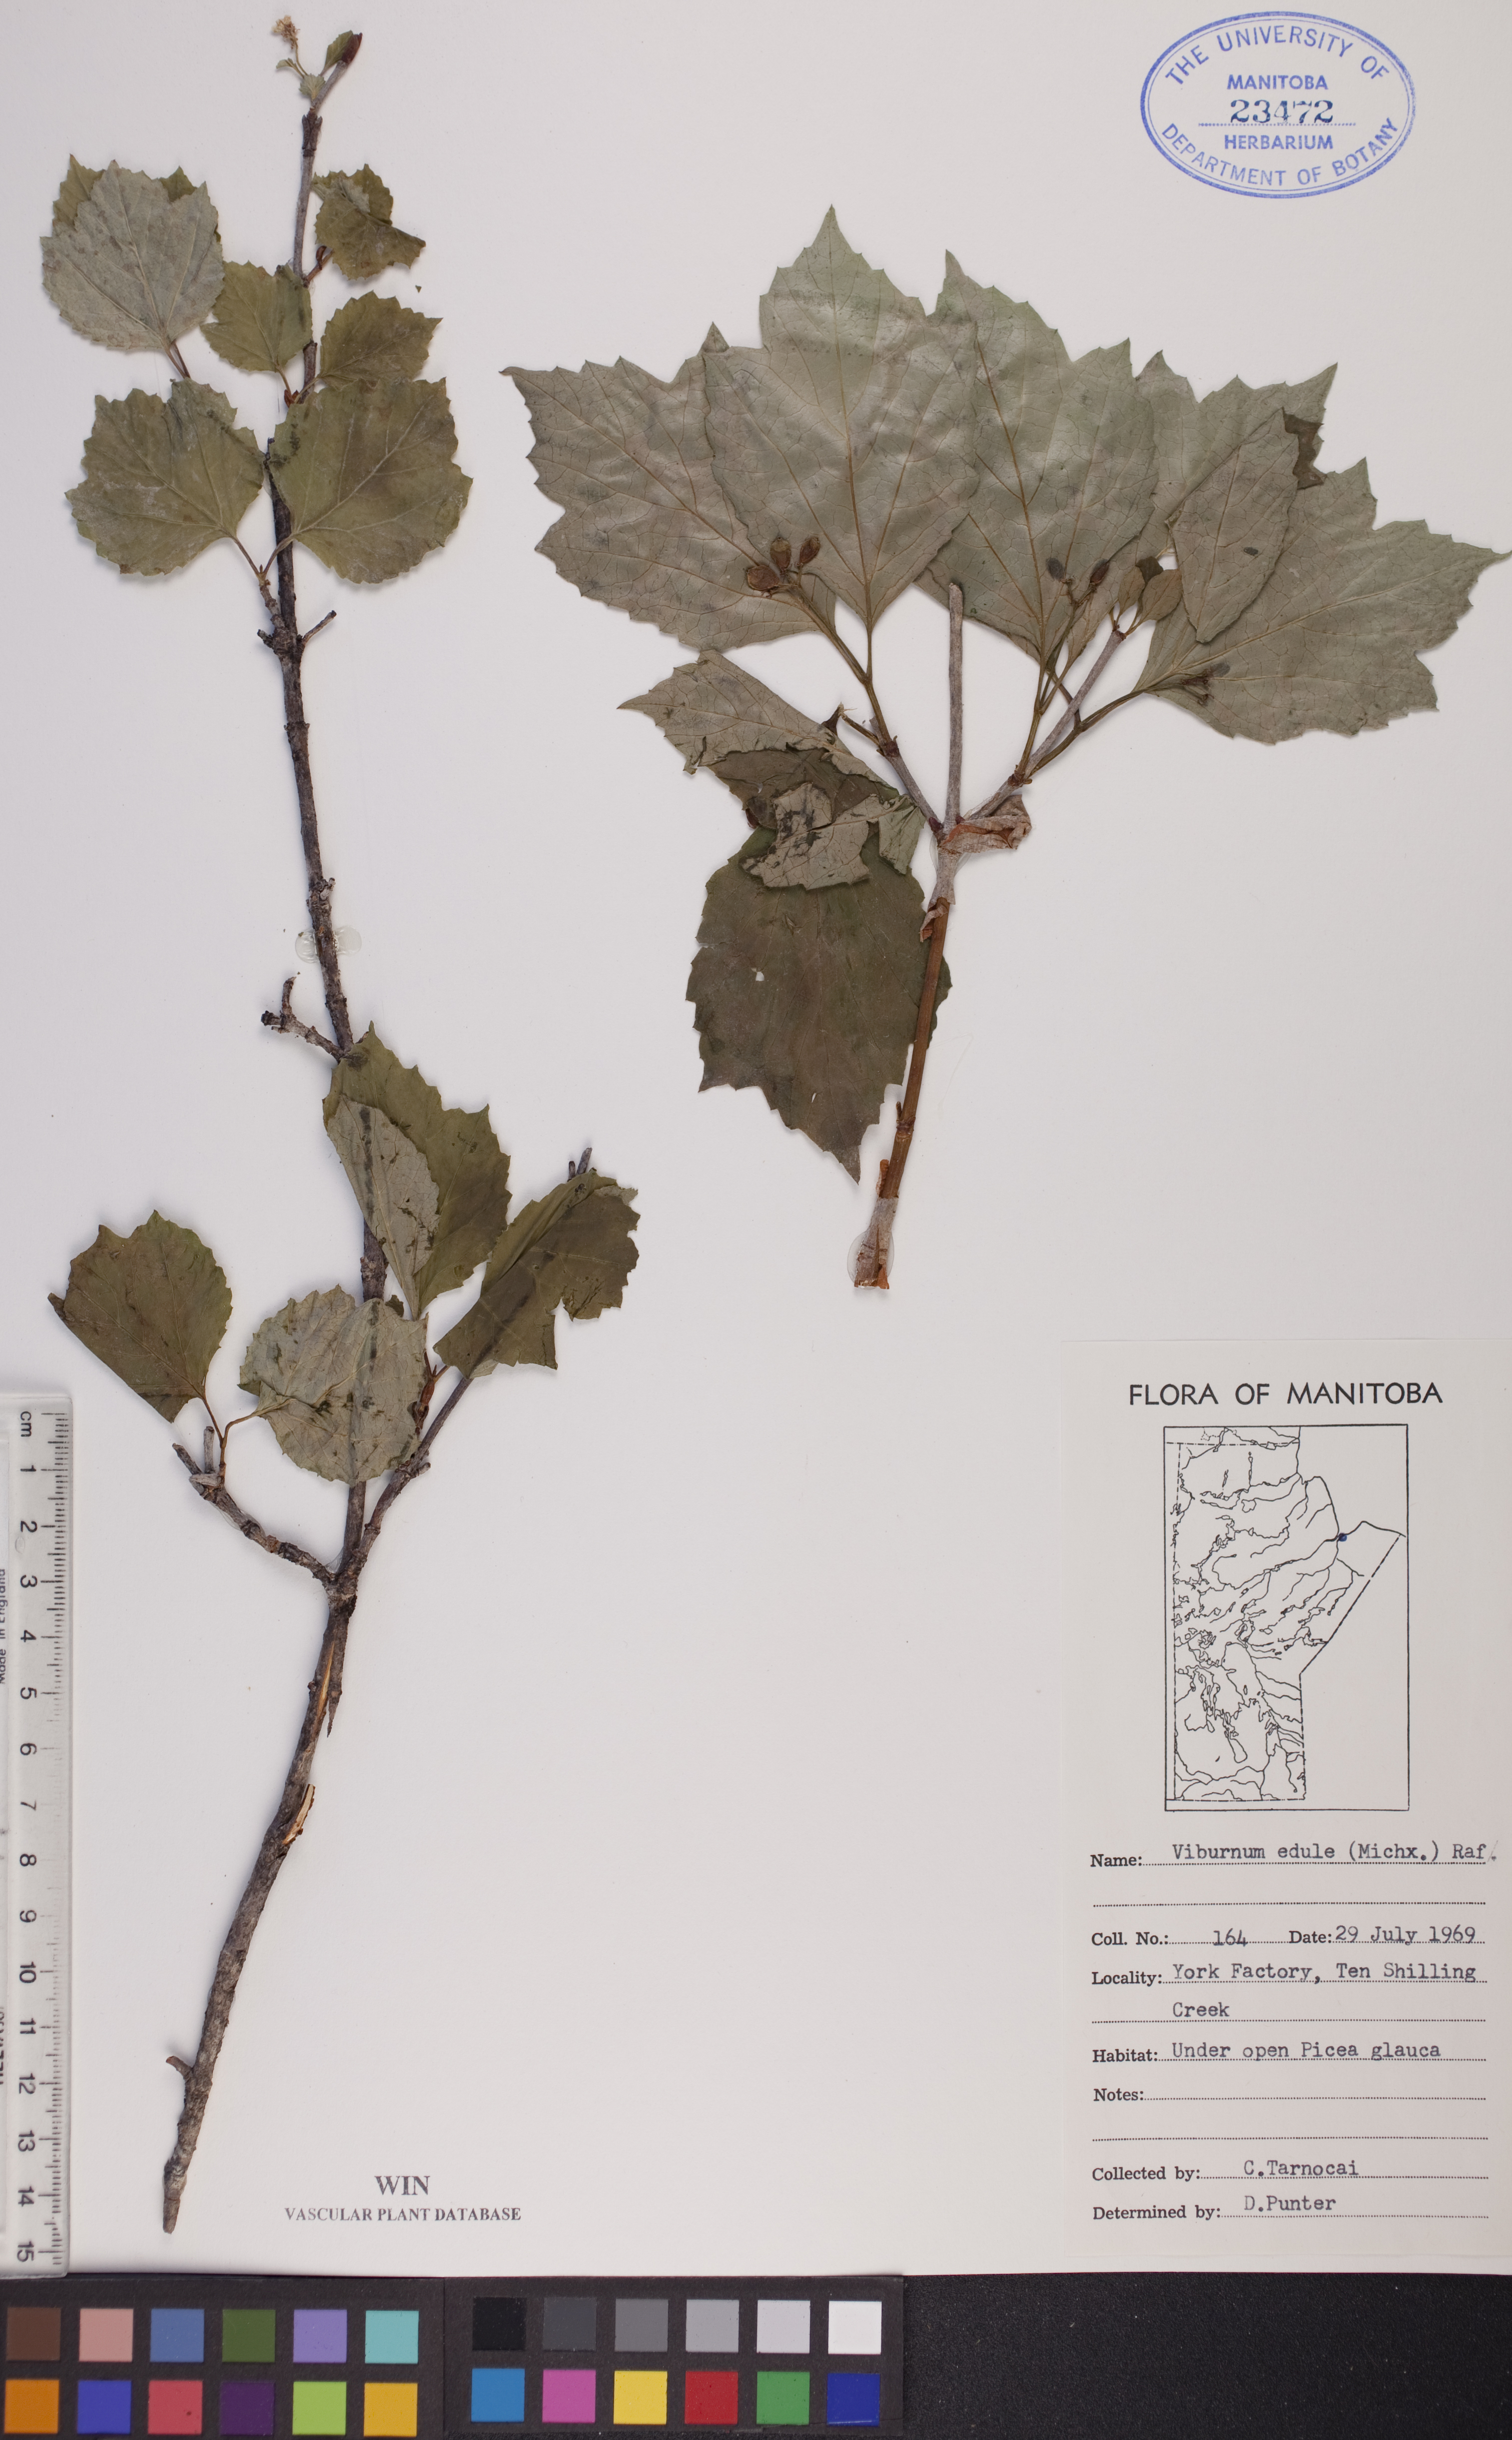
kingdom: Plantae
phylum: Tracheophyta
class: Magnoliopsida
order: Dipsacales
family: Viburnaceae
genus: Viburnum
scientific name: Viburnum edule
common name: Mooseberry
